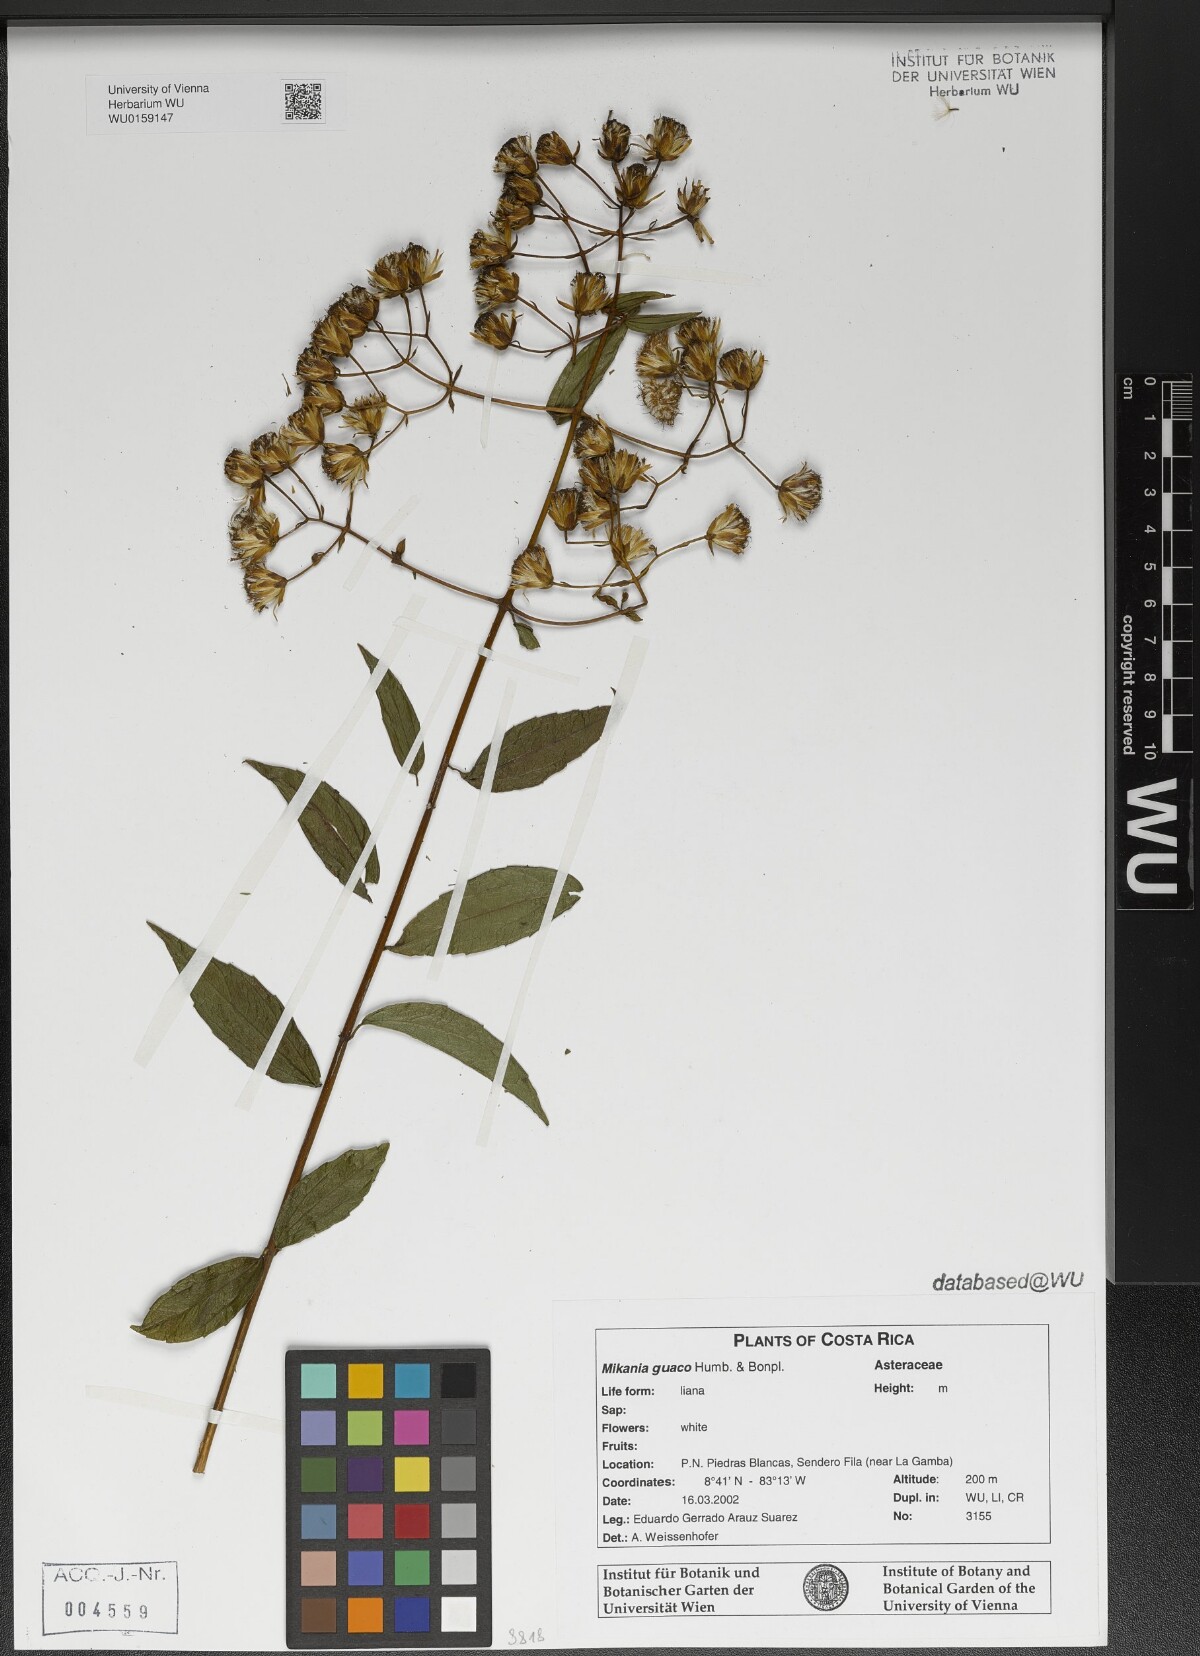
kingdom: Plantae
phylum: Tracheophyta
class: Magnoliopsida
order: Asterales
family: Asteraceae
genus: Mikania
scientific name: Mikania guaco
